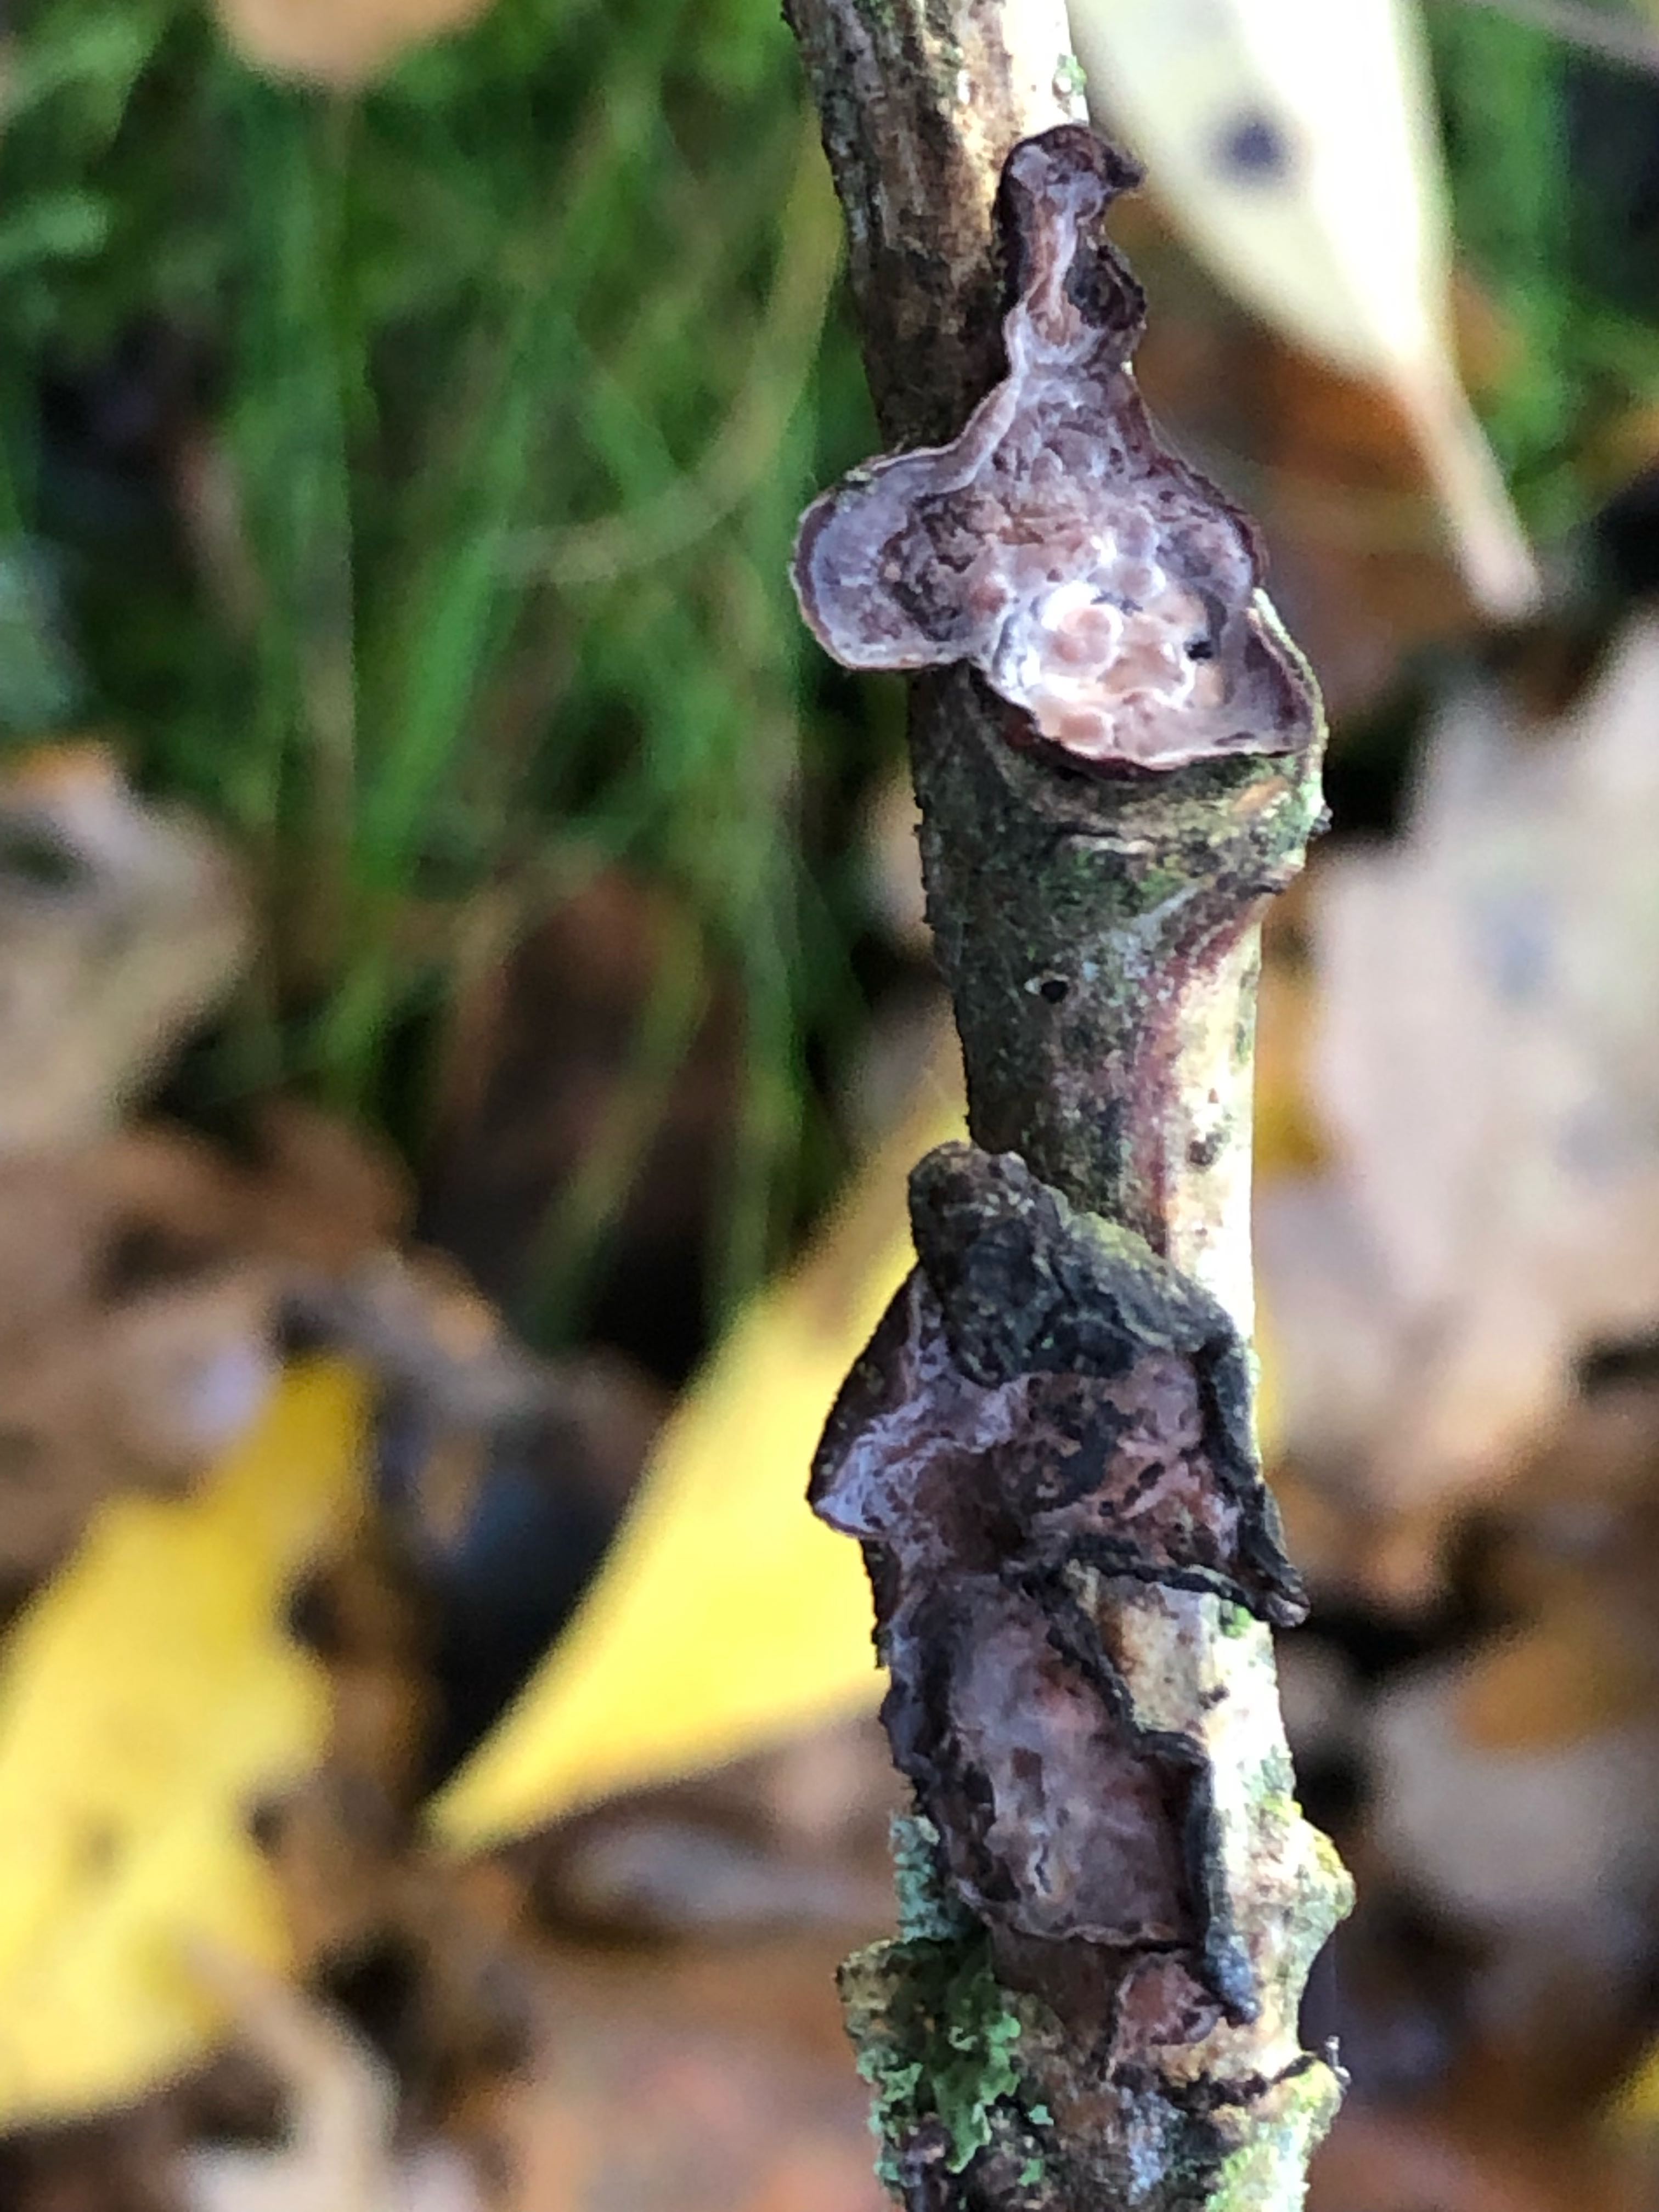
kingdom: Fungi
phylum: Basidiomycota
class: Agaricomycetes
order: Russulales
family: Peniophoraceae
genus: Peniophora
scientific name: Peniophora quercina
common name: ege-voksskind
